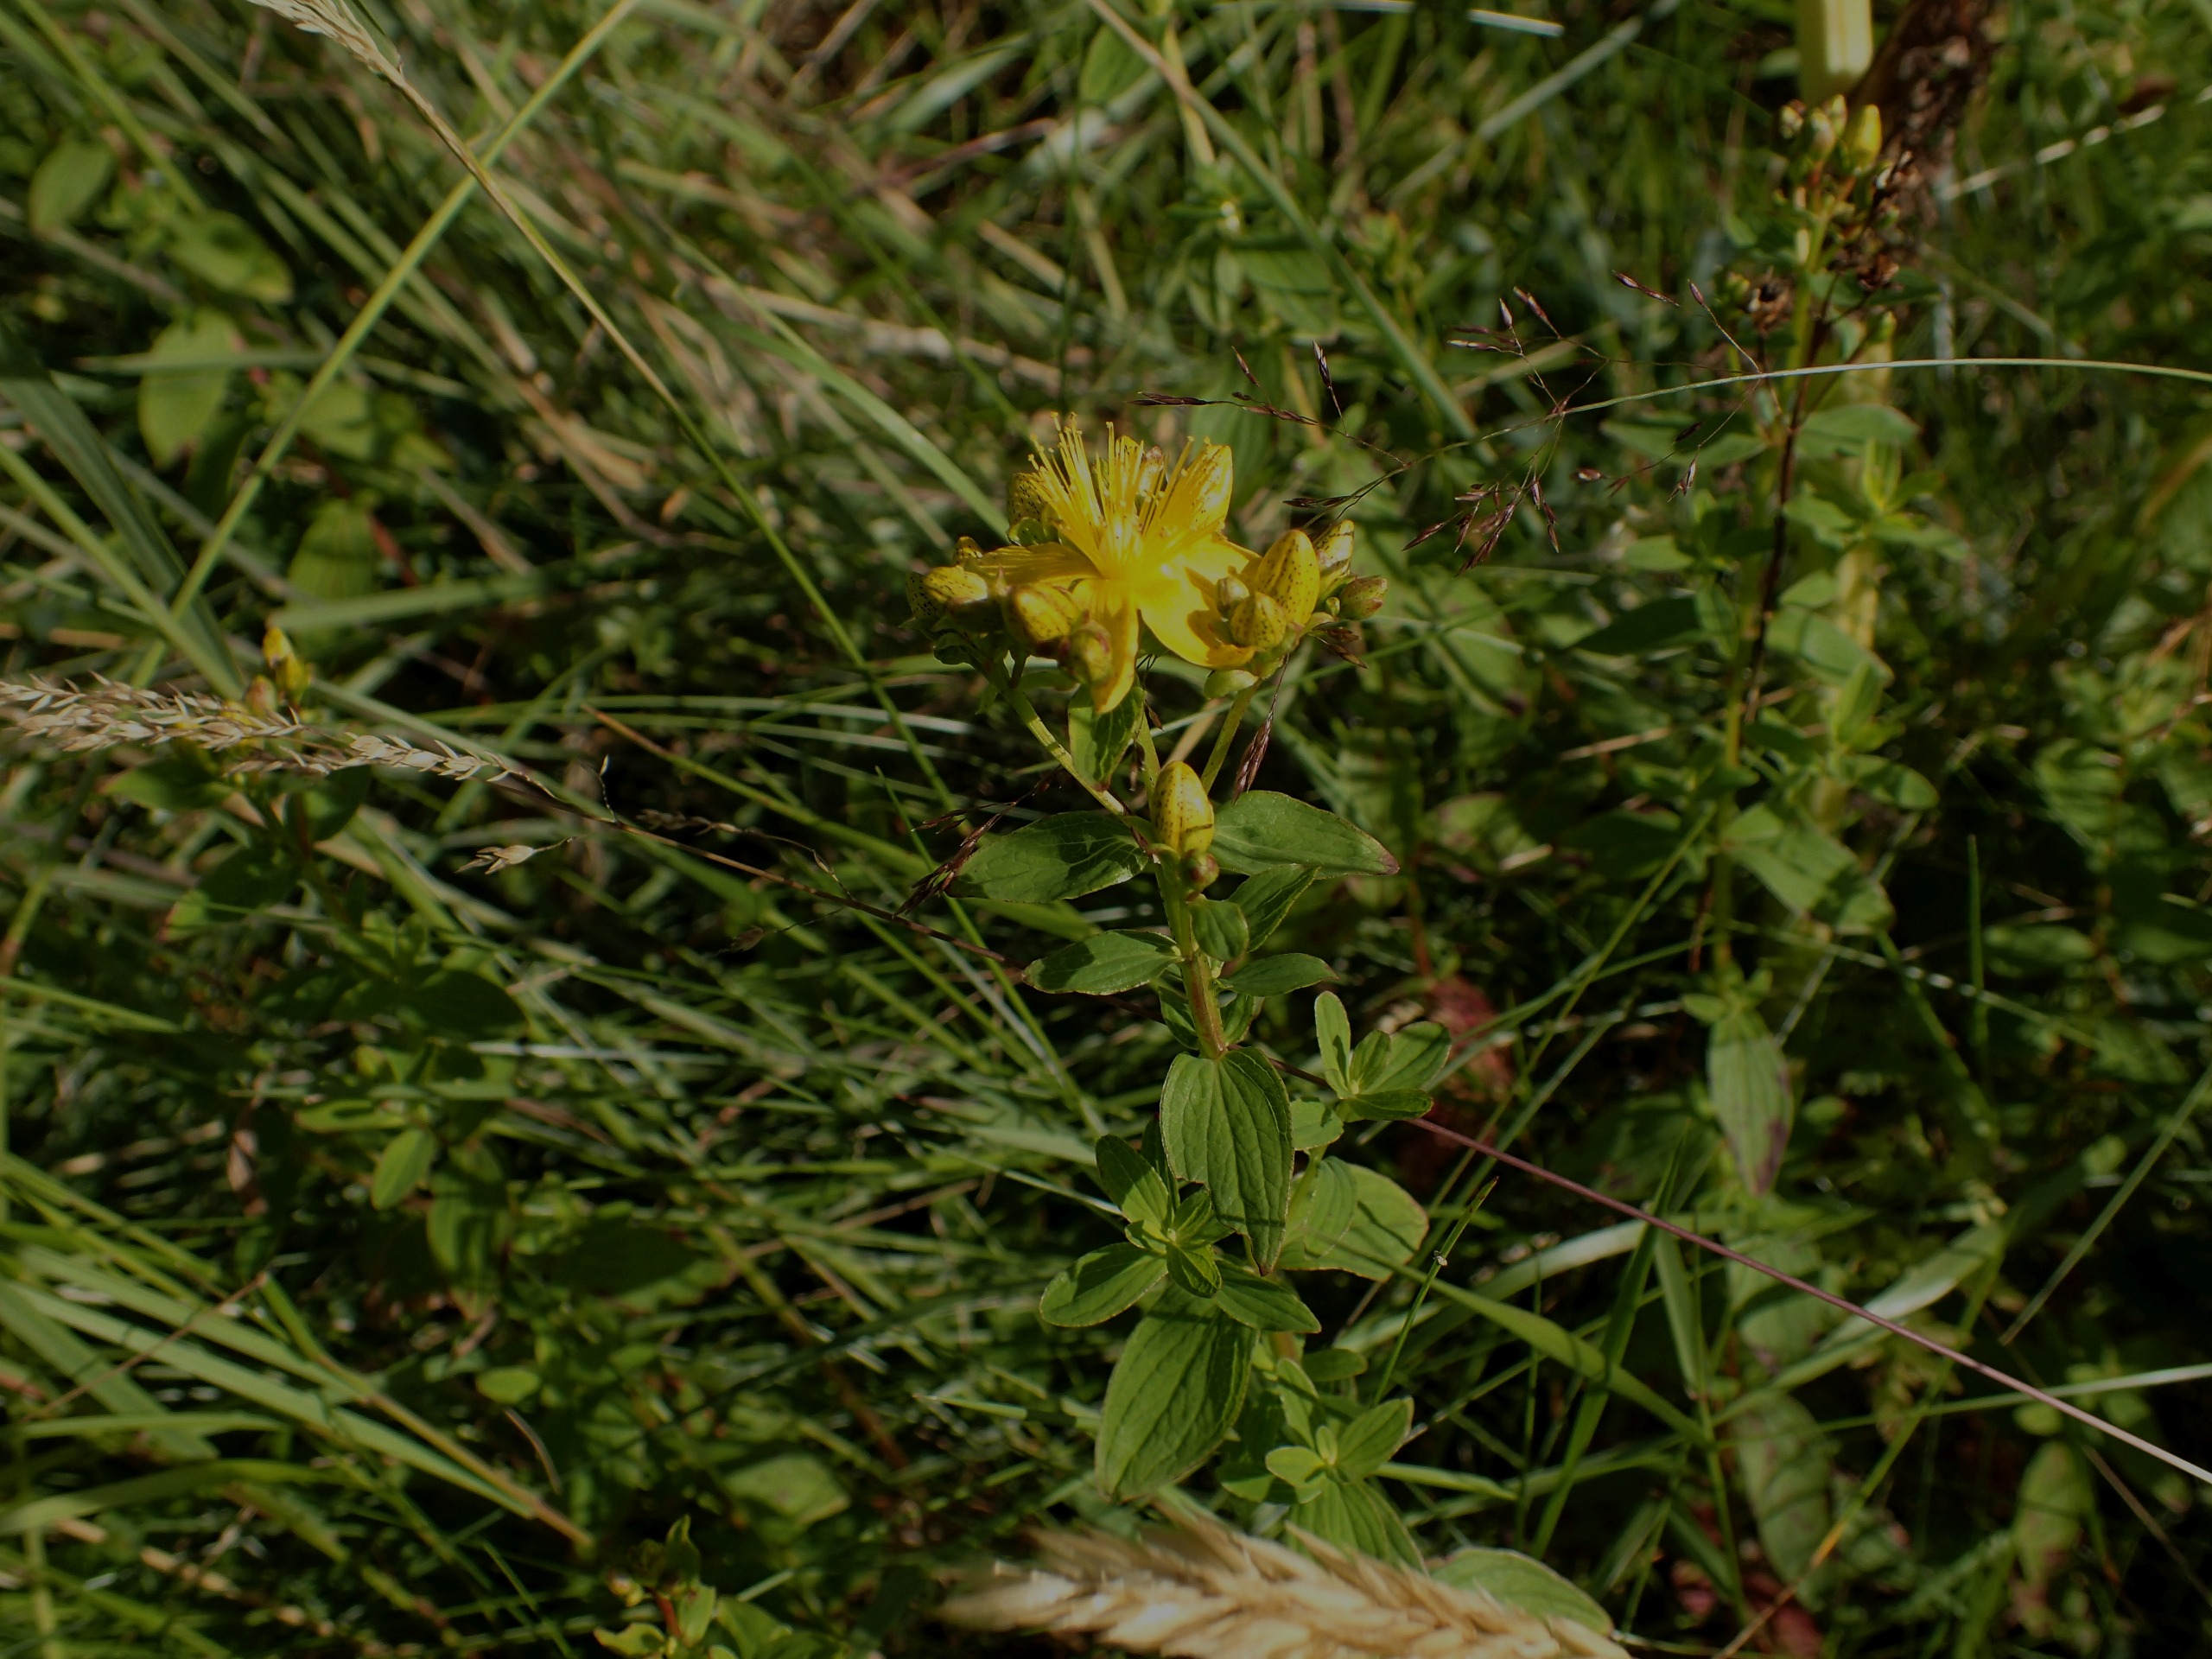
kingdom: Plantae
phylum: Tracheophyta
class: Magnoliopsida
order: Malpighiales
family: Hypericaceae
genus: Hypericum
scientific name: Hypericum tetrapterum
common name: Vinget perikon
